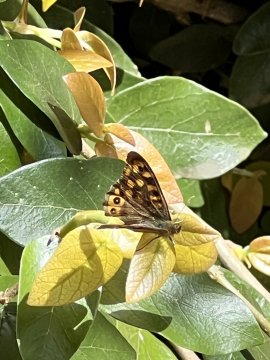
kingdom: Animalia
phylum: Arthropoda
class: Insecta
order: Lepidoptera
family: Nymphalidae
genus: Pararge
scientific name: Pararge aegeria
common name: Speckled Wood Butterfly
